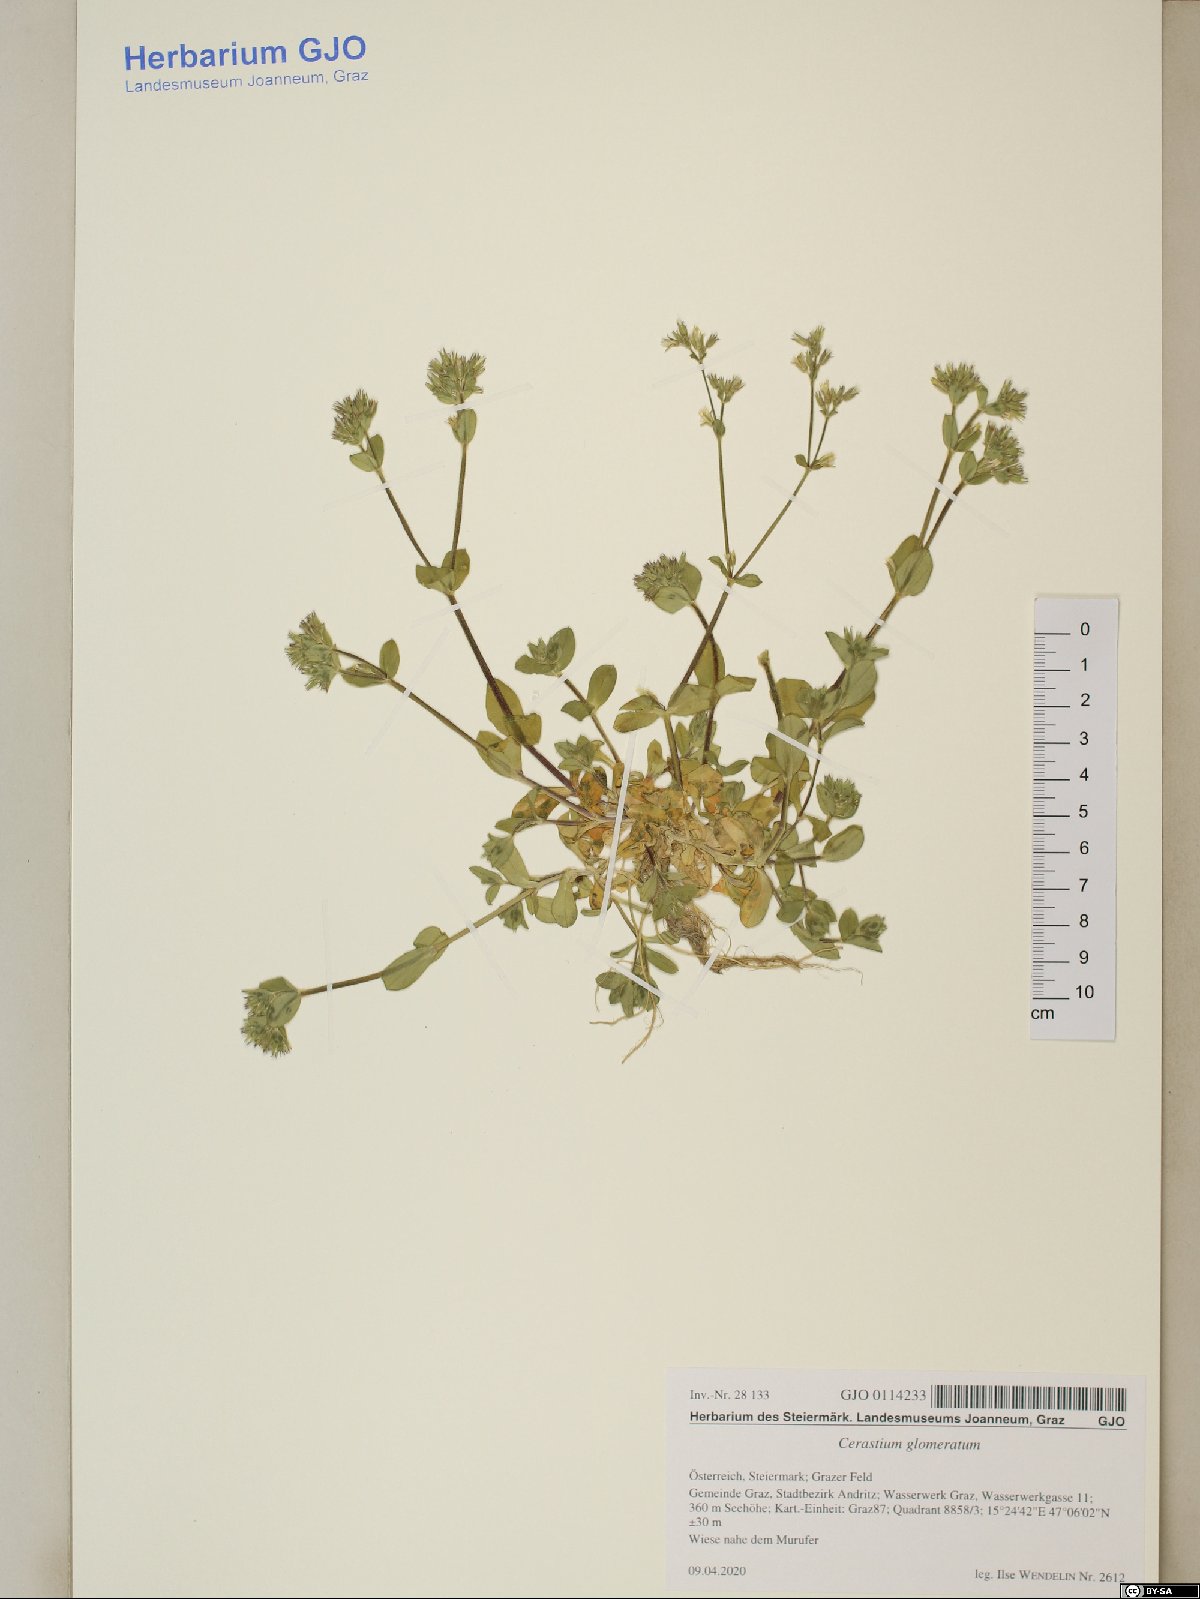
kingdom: Plantae
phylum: Tracheophyta
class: Magnoliopsida
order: Caryophyllales
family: Caryophyllaceae
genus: Cerastium
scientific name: Cerastium glomeratum
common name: Sticky chickweed
